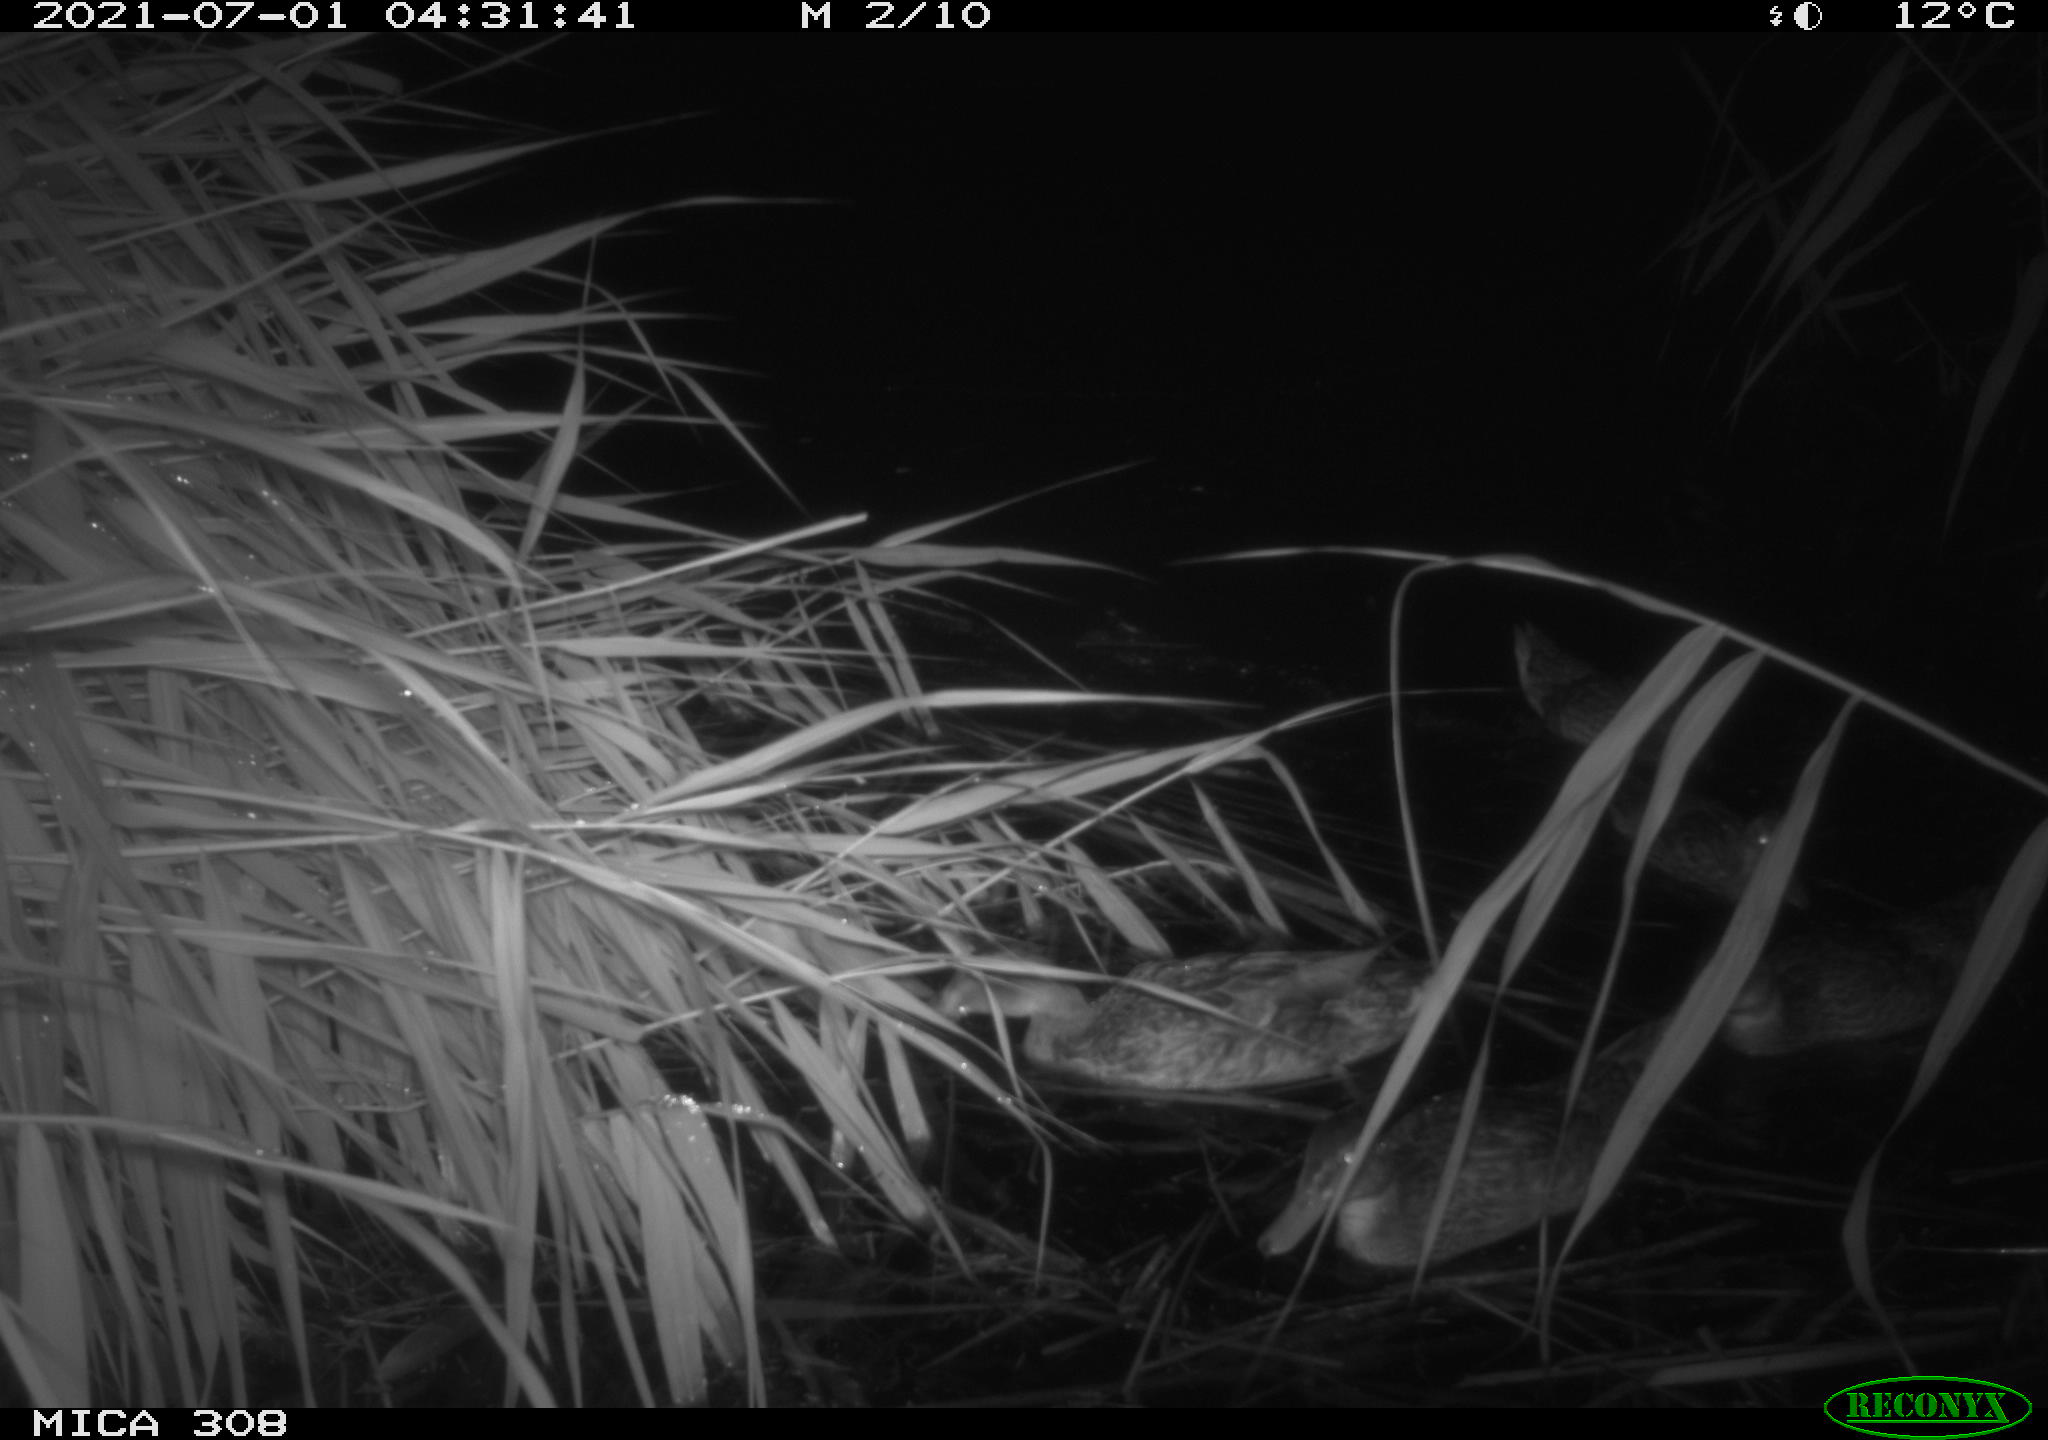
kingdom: Animalia
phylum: Chordata
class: Aves
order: Anseriformes
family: Anatidae
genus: Anas
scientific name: Anas platyrhynchos
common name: Mallard
